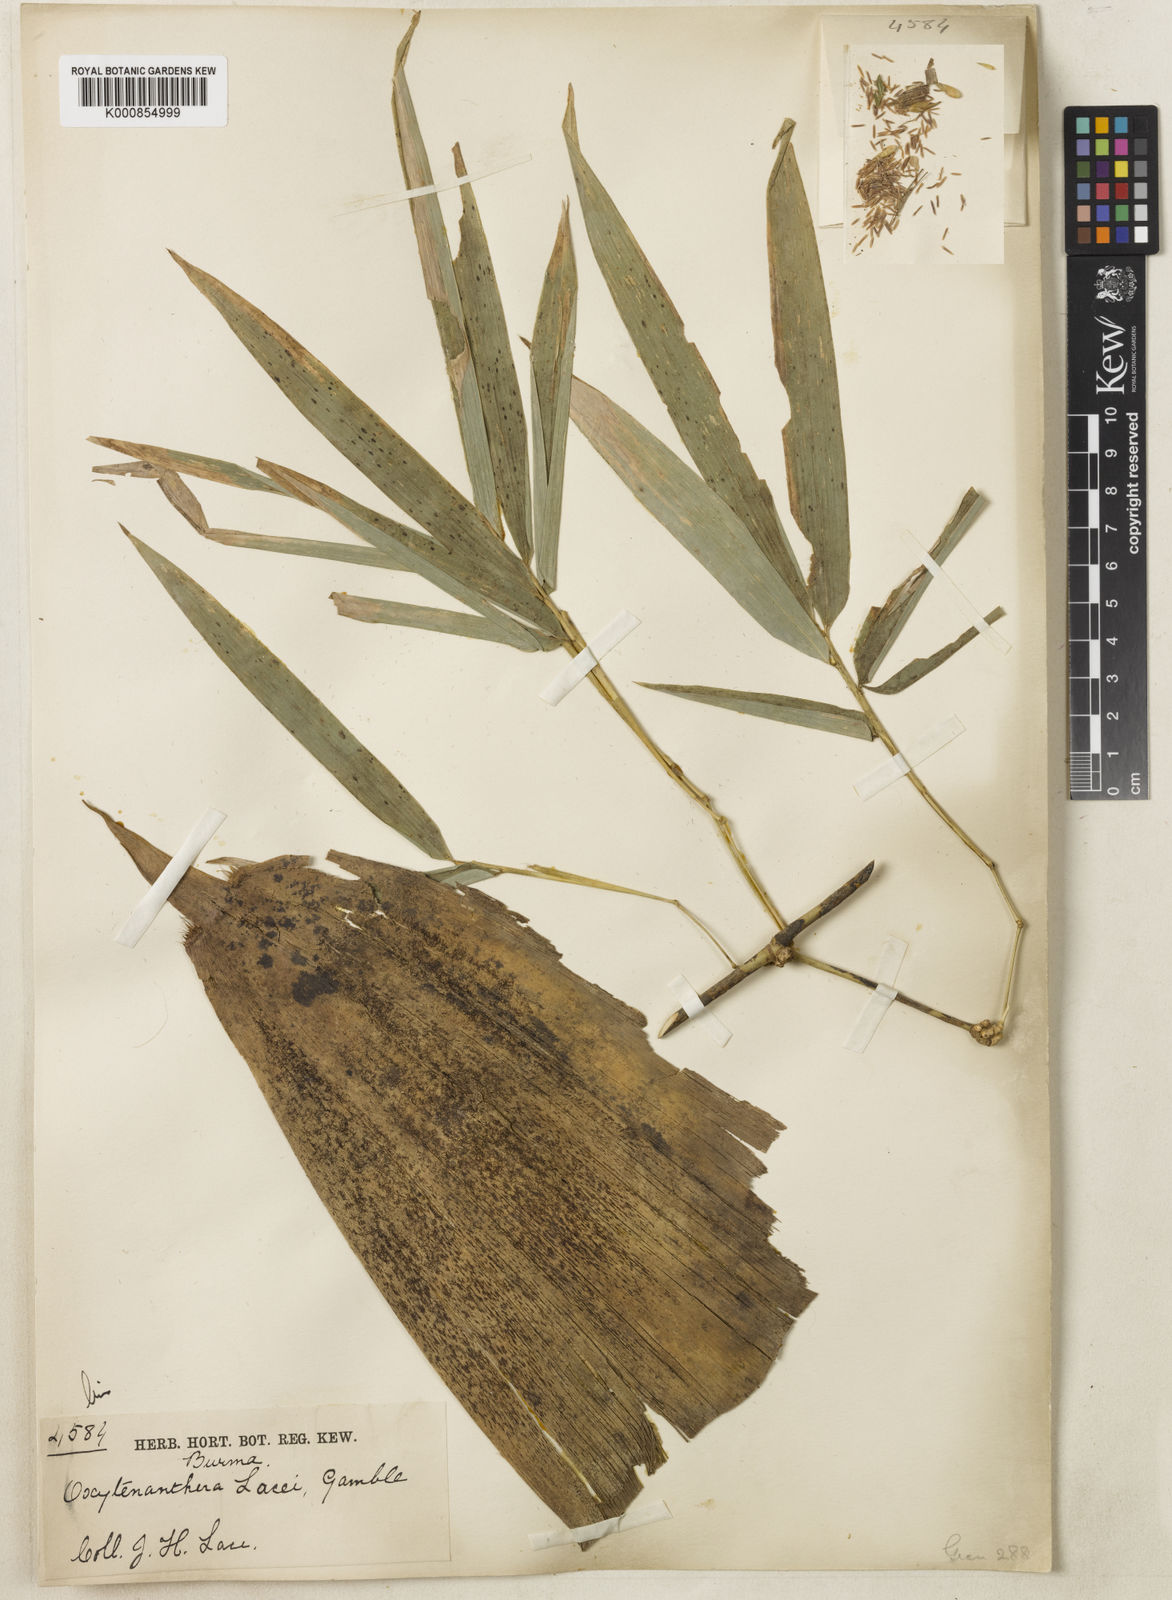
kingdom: Plantae
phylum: Tracheophyta
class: Liliopsida
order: Poales
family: Poaceae
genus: Dendrocalamus
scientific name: Dendrocalamus membranaceus
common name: White bamboo
